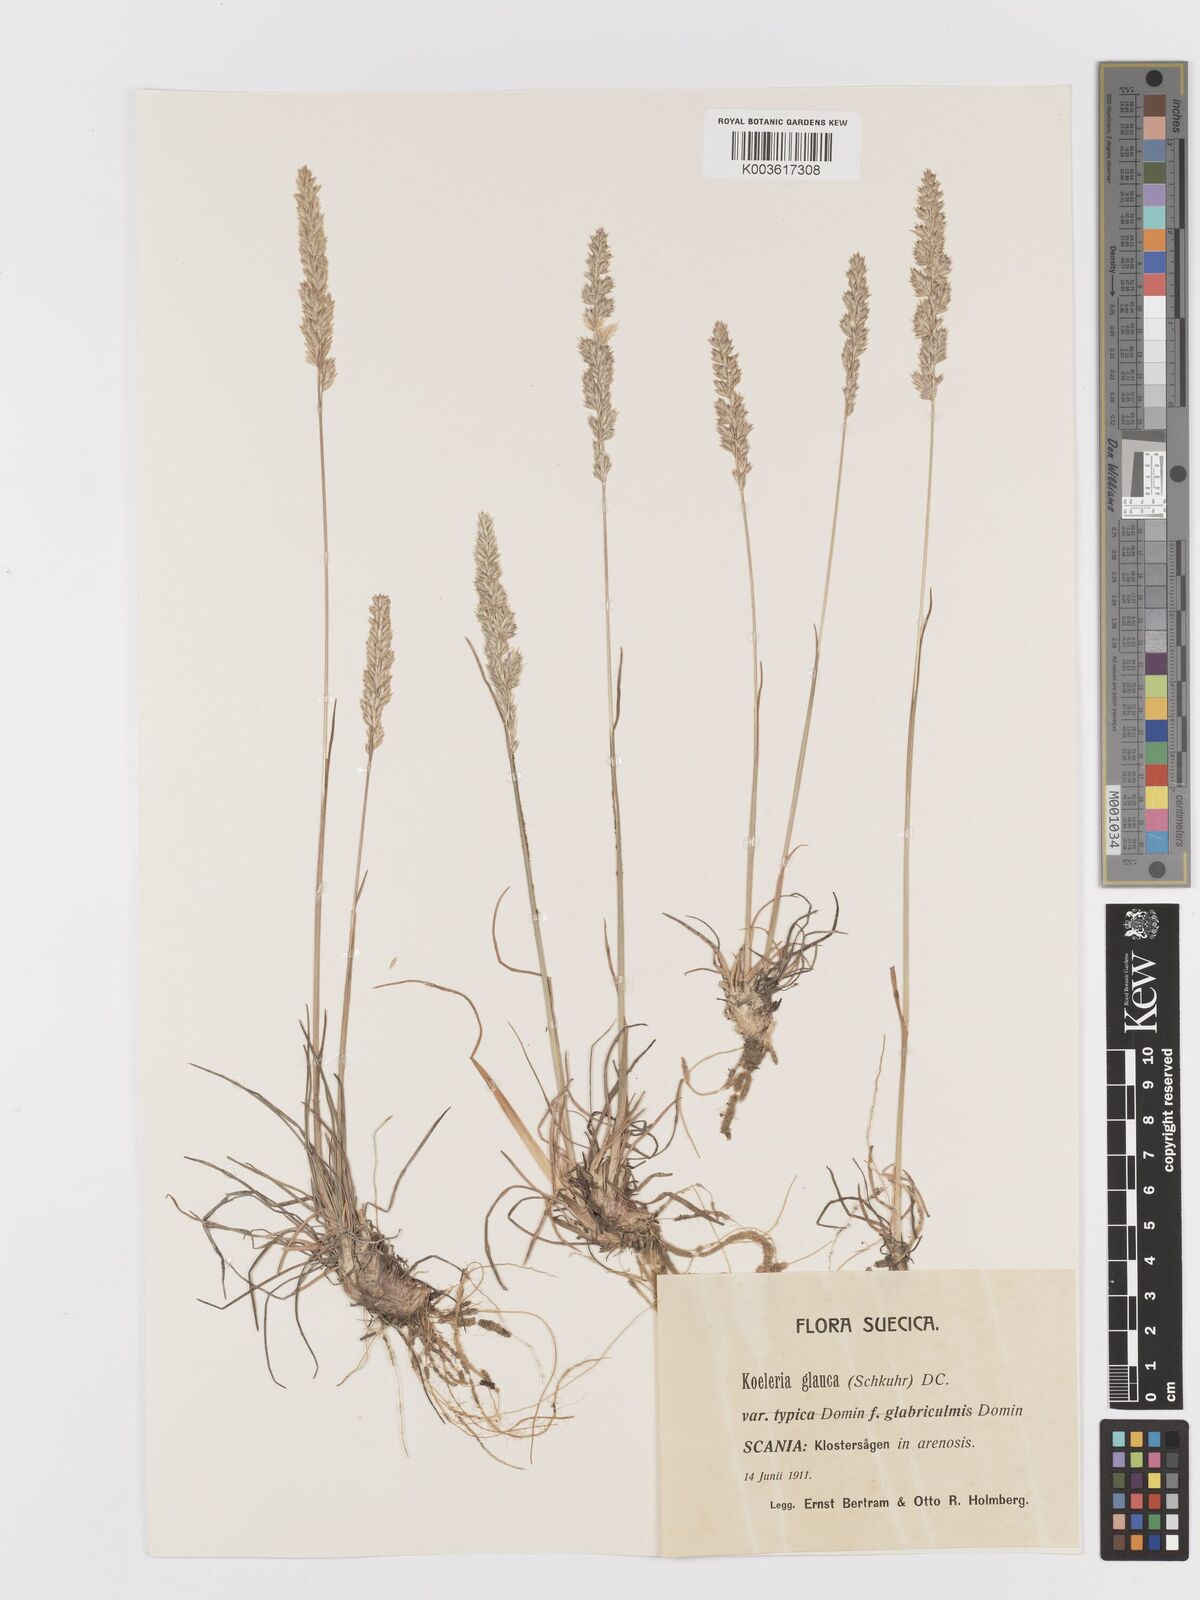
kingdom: Plantae
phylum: Tracheophyta
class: Liliopsida
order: Poales
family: Poaceae
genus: Koeleria
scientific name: Koeleria glauca
